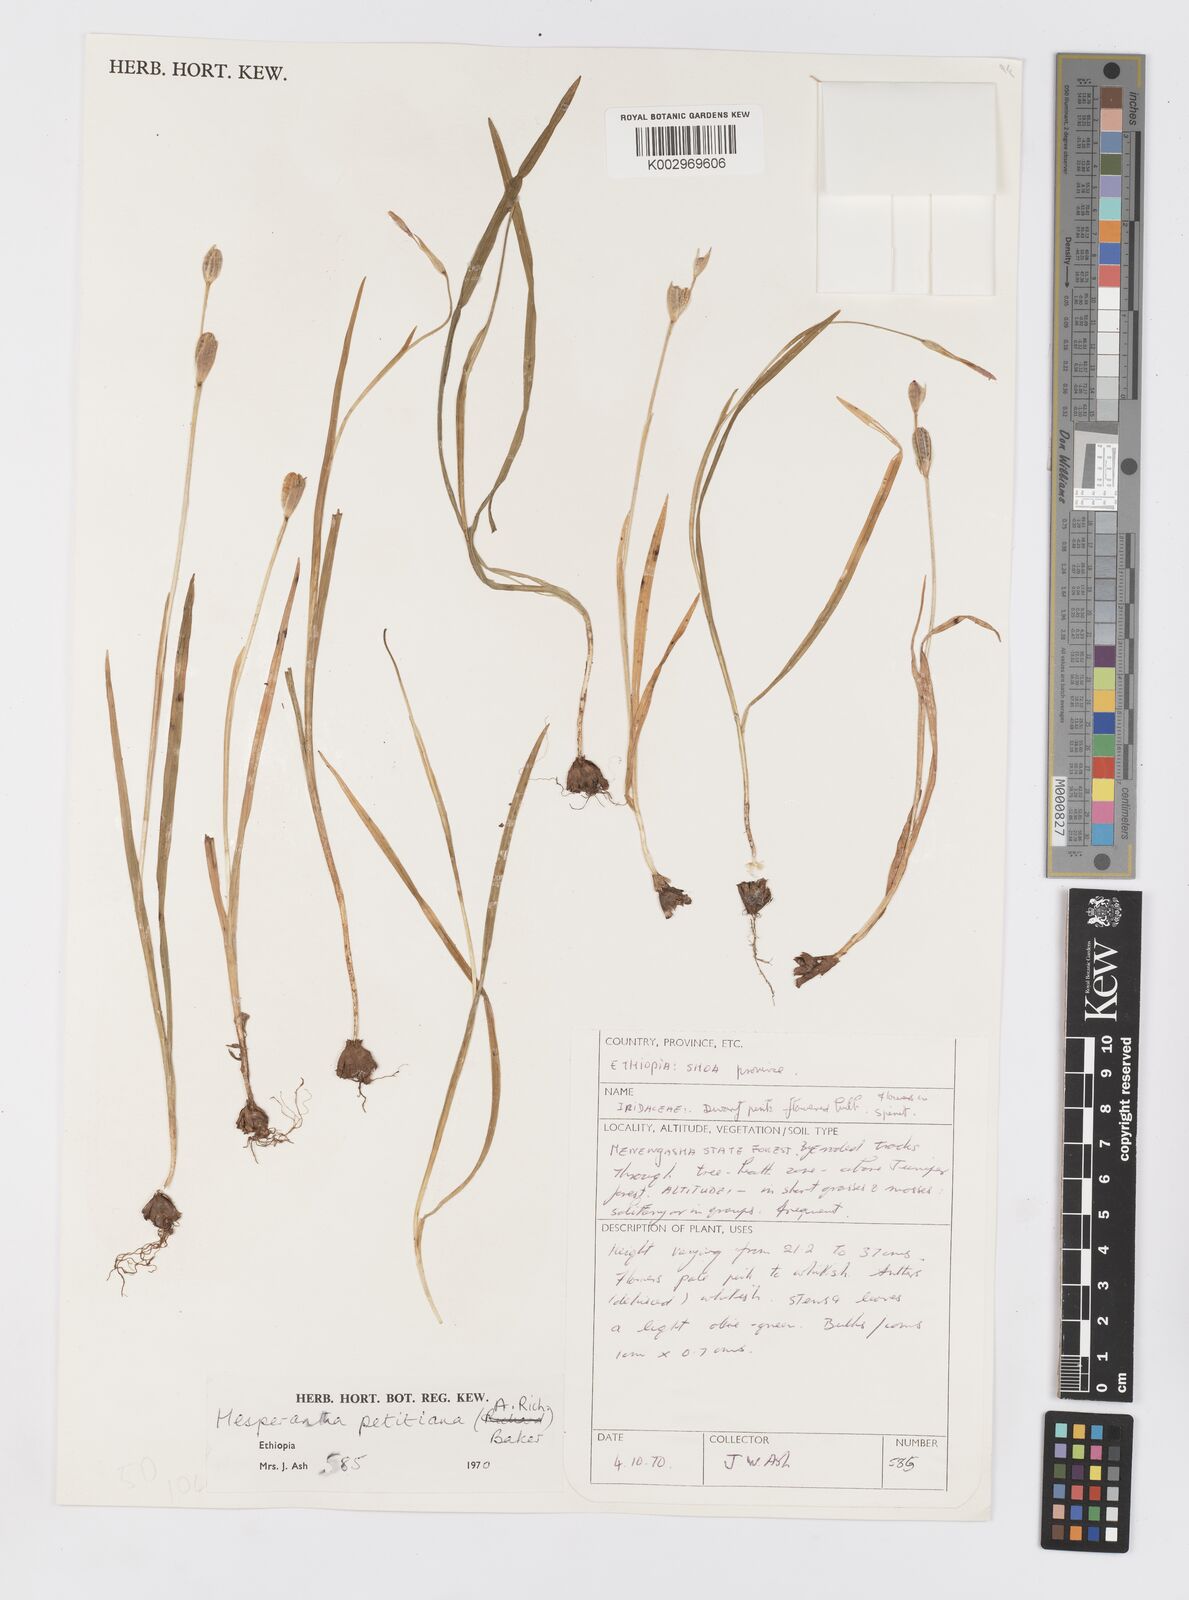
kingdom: Plantae
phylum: Tracheophyta
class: Liliopsida
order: Asparagales
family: Iridaceae
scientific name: Iridaceae
